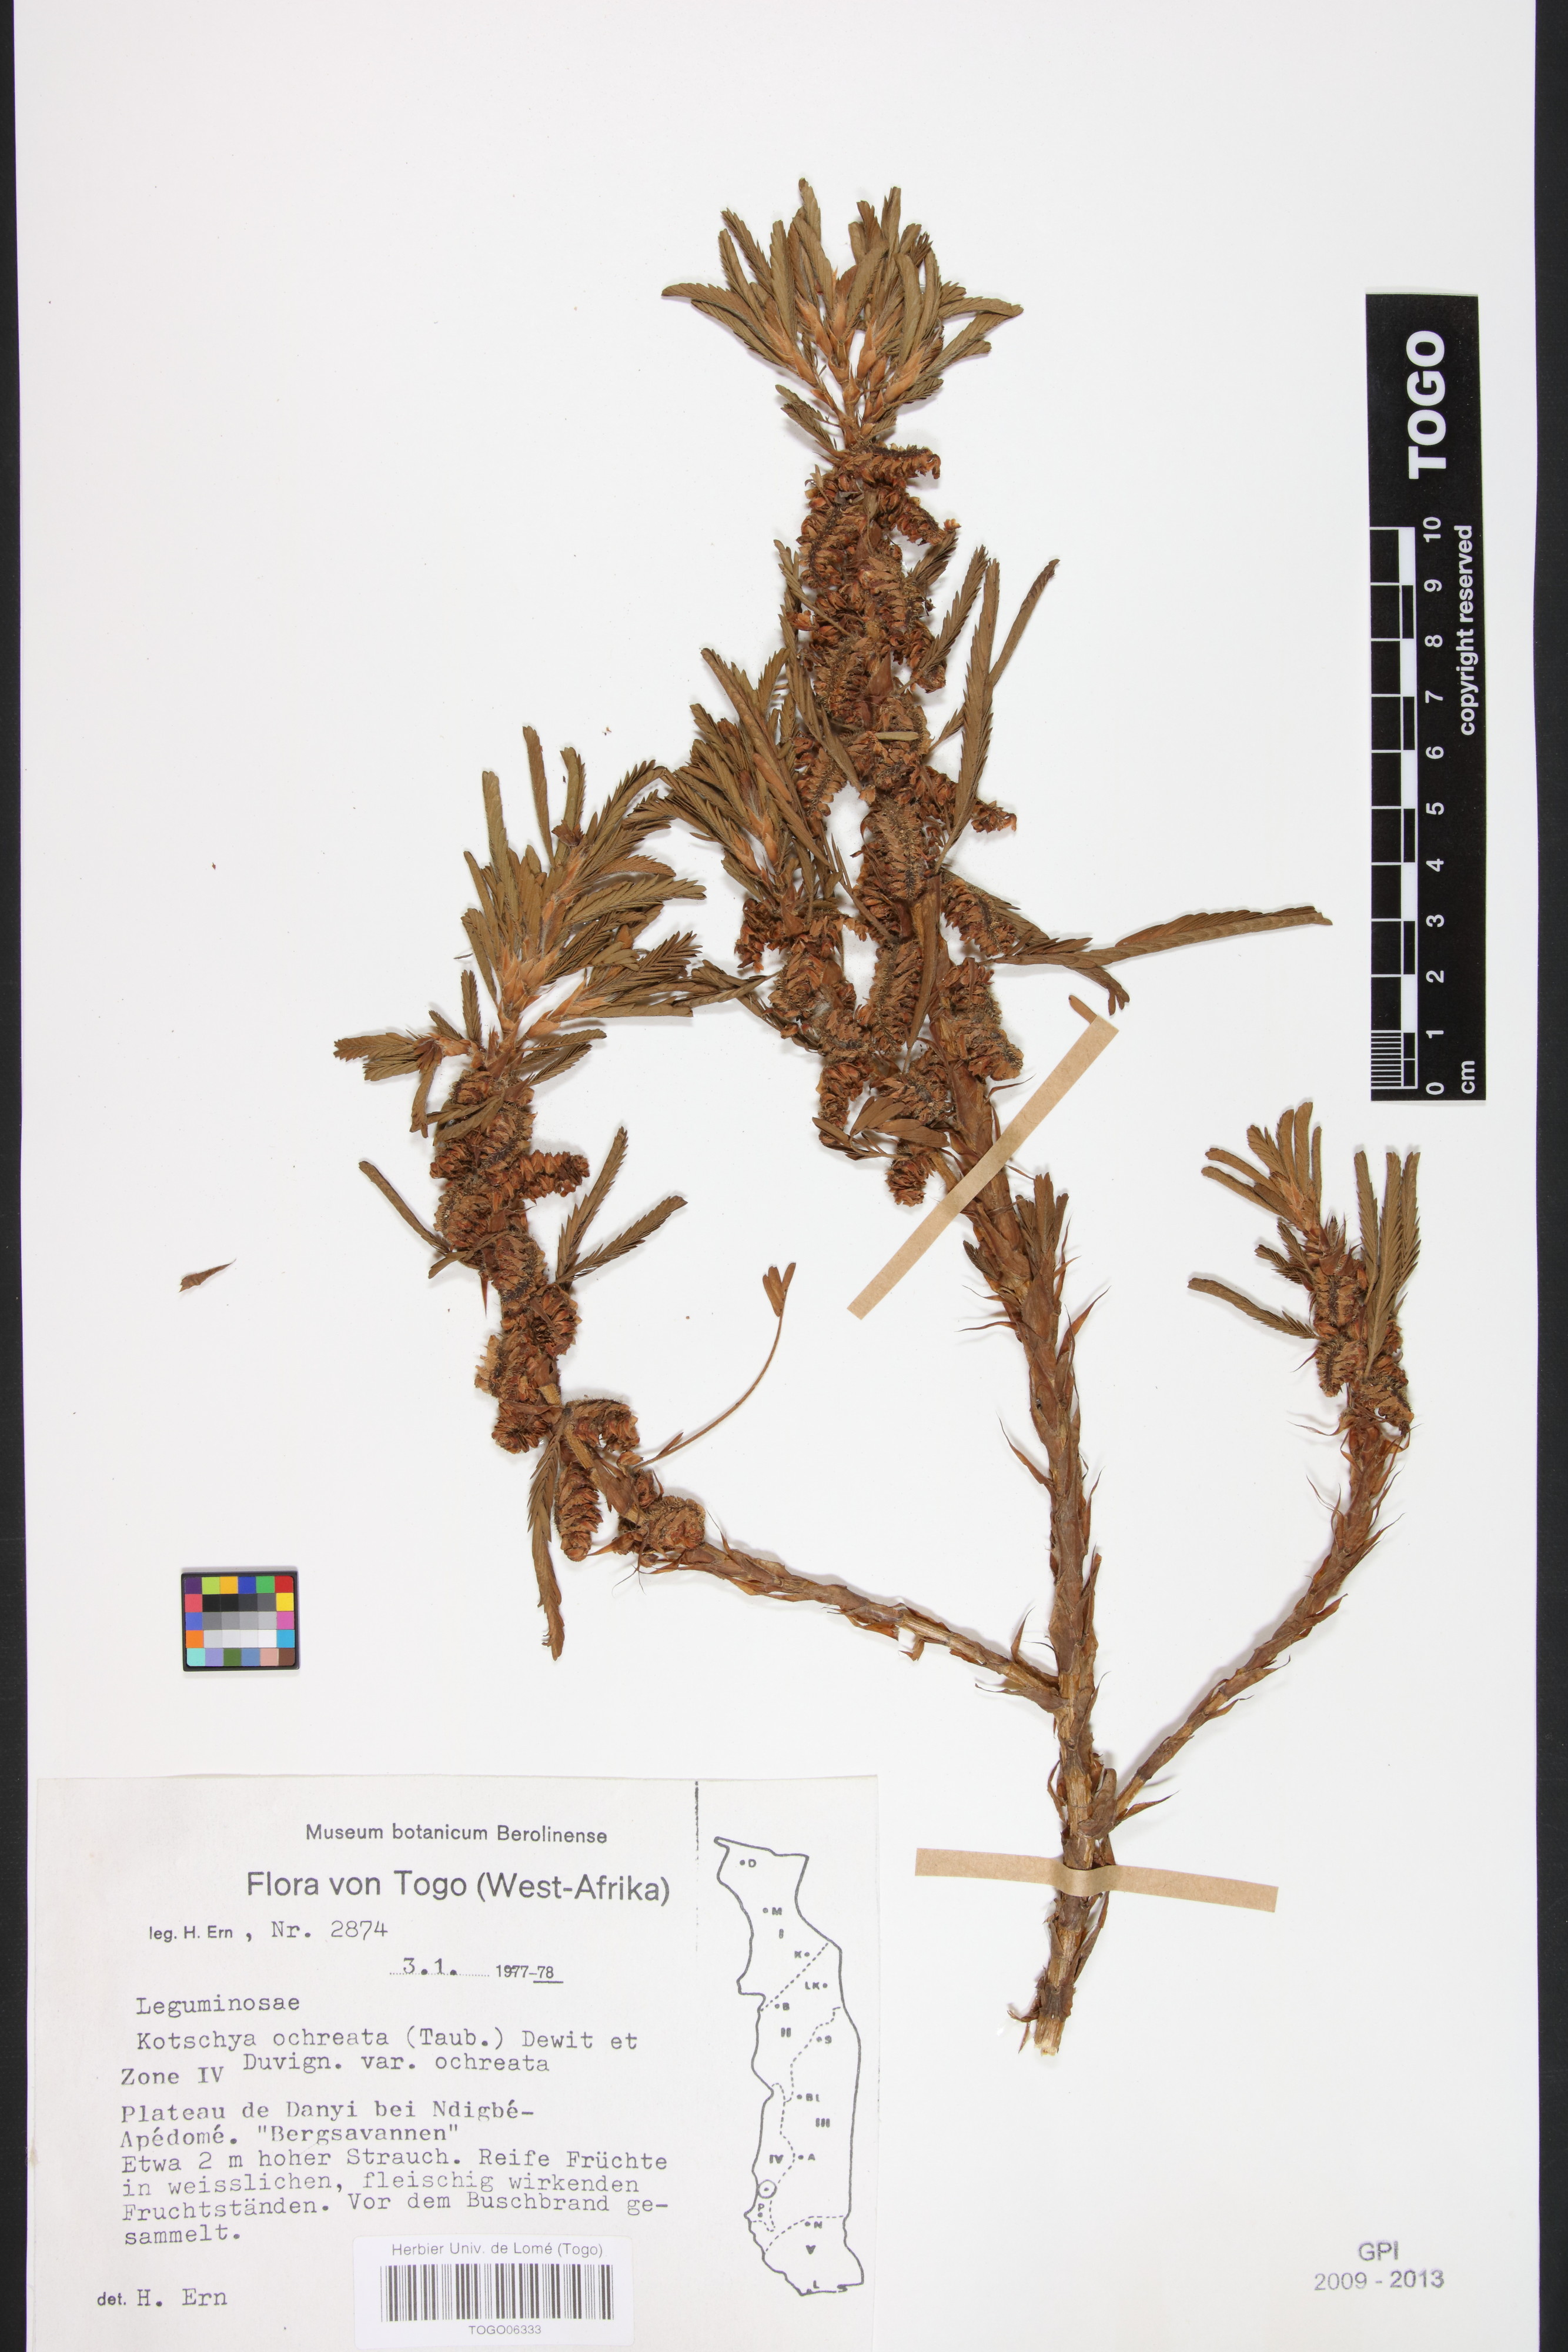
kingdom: Plantae
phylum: Tracheophyta
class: Magnoliopsida
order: Fabales
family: Fabaceae
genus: Kotschya
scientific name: Kotschya ochreata
